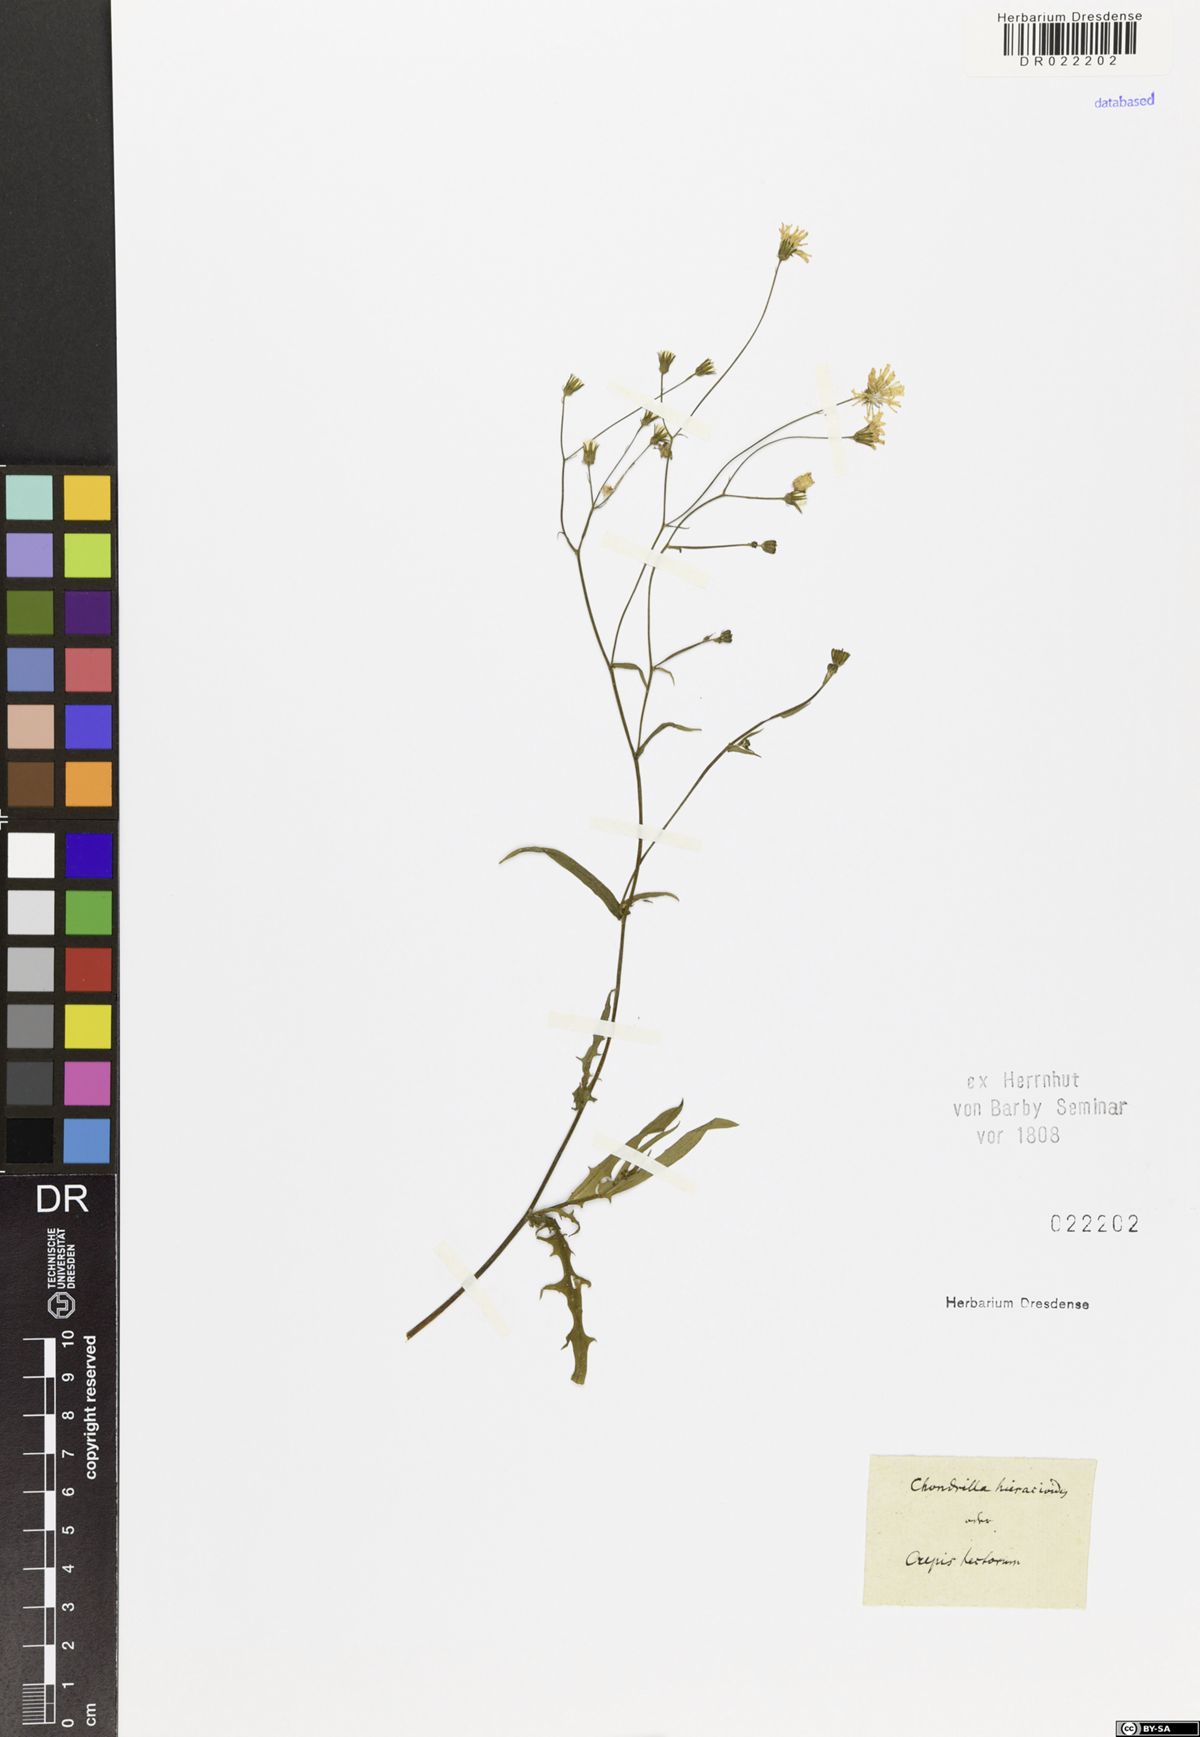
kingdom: Plantae
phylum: Tracheophyta
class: Magnoliopsida
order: Asterales
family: Asteraceae
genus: Crepis
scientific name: Crepis capillaris
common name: Smooth hawksbeard
